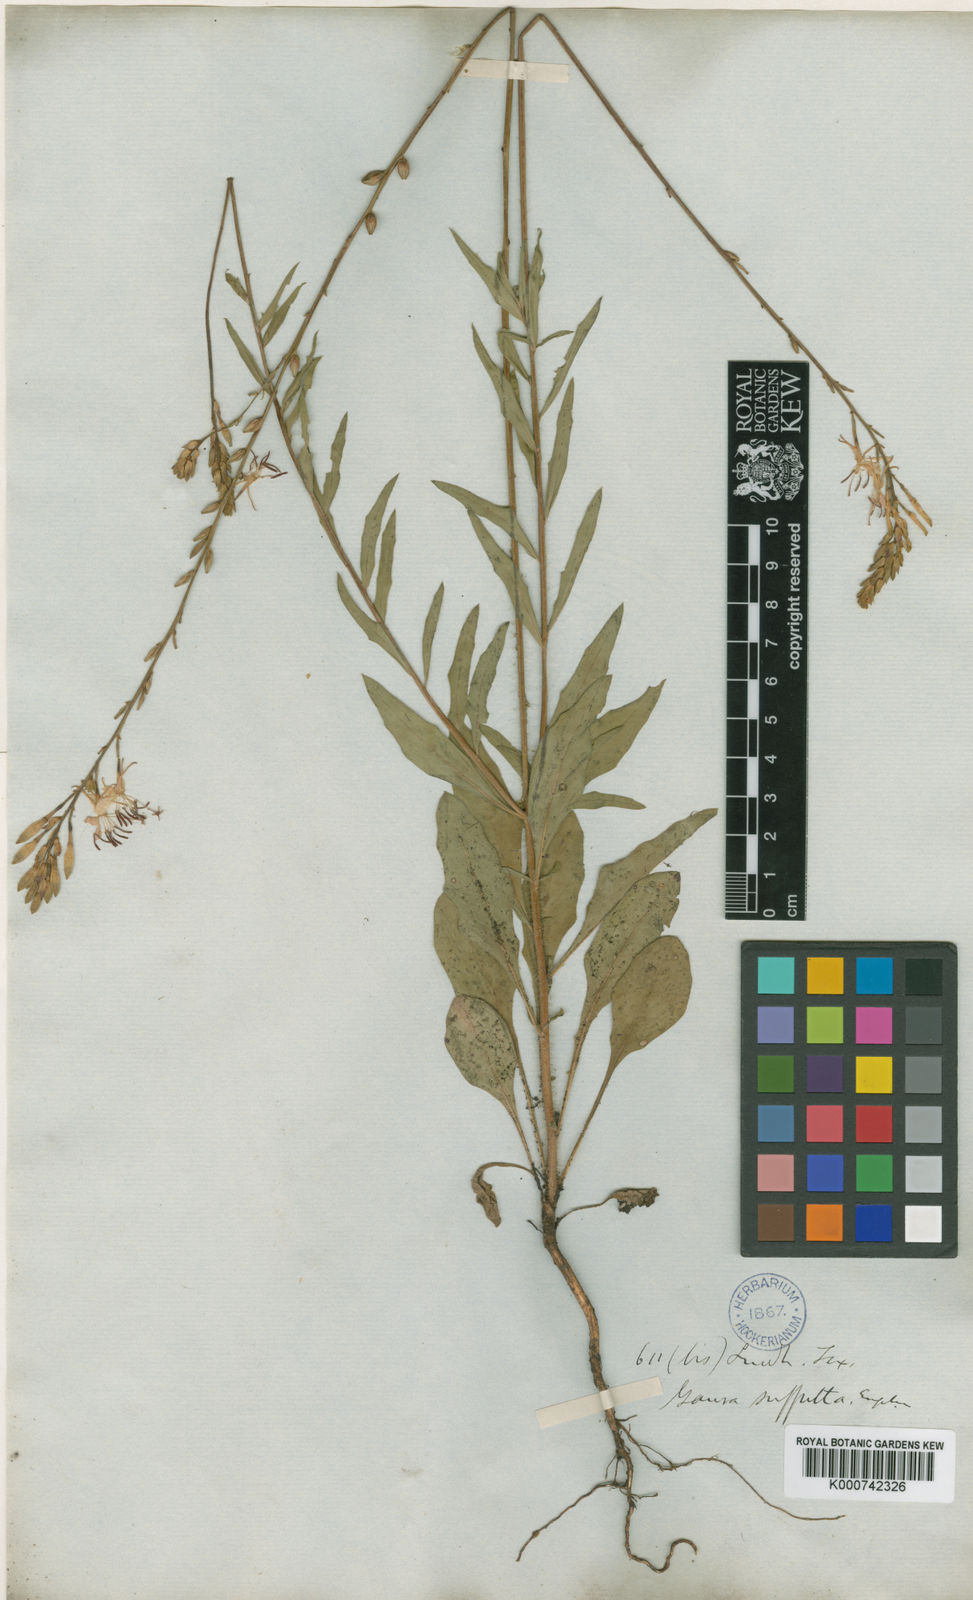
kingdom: Plantae
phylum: Tracheophyta
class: Magnoliopsida
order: Myrtales
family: Onagraceae
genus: Oenothera
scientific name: Oenothera
